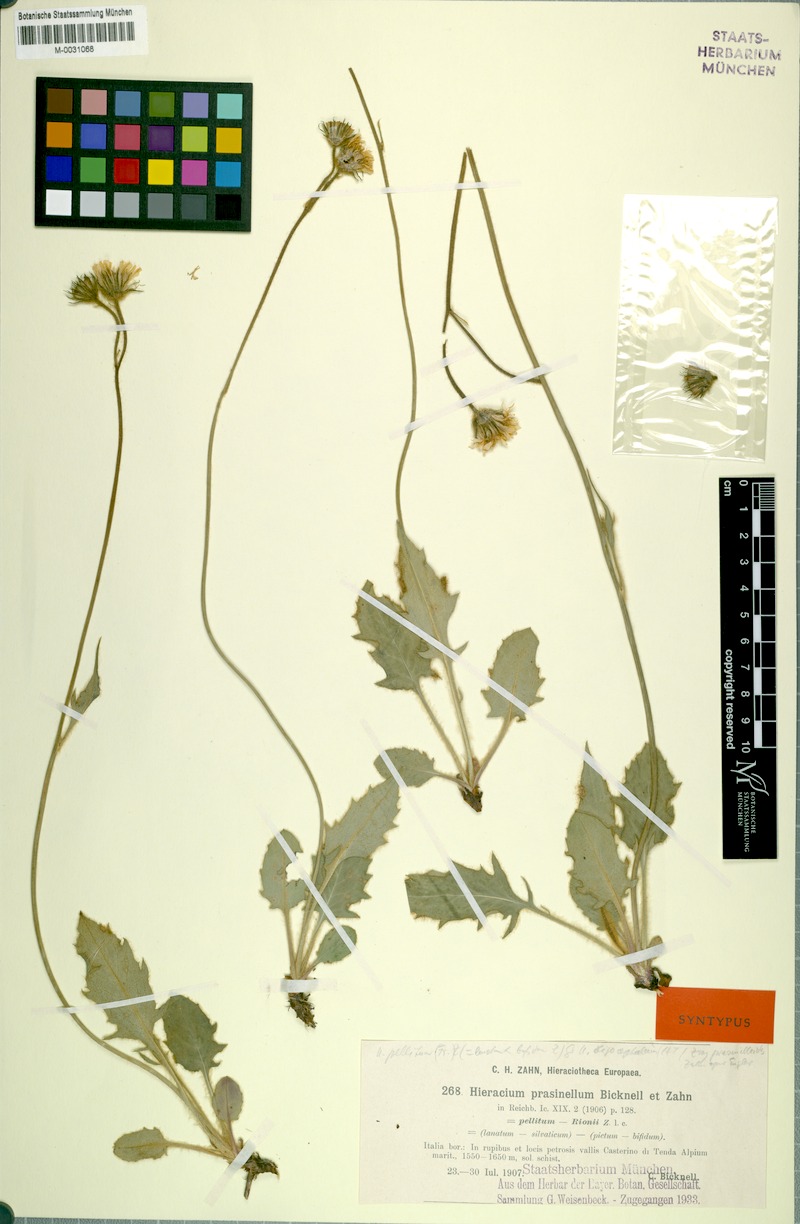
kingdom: Plantae
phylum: Tracheophyta
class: Magnoliopsida
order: Asterales
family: Asteraceae
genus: Hieracium
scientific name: Hieracium pellitum
